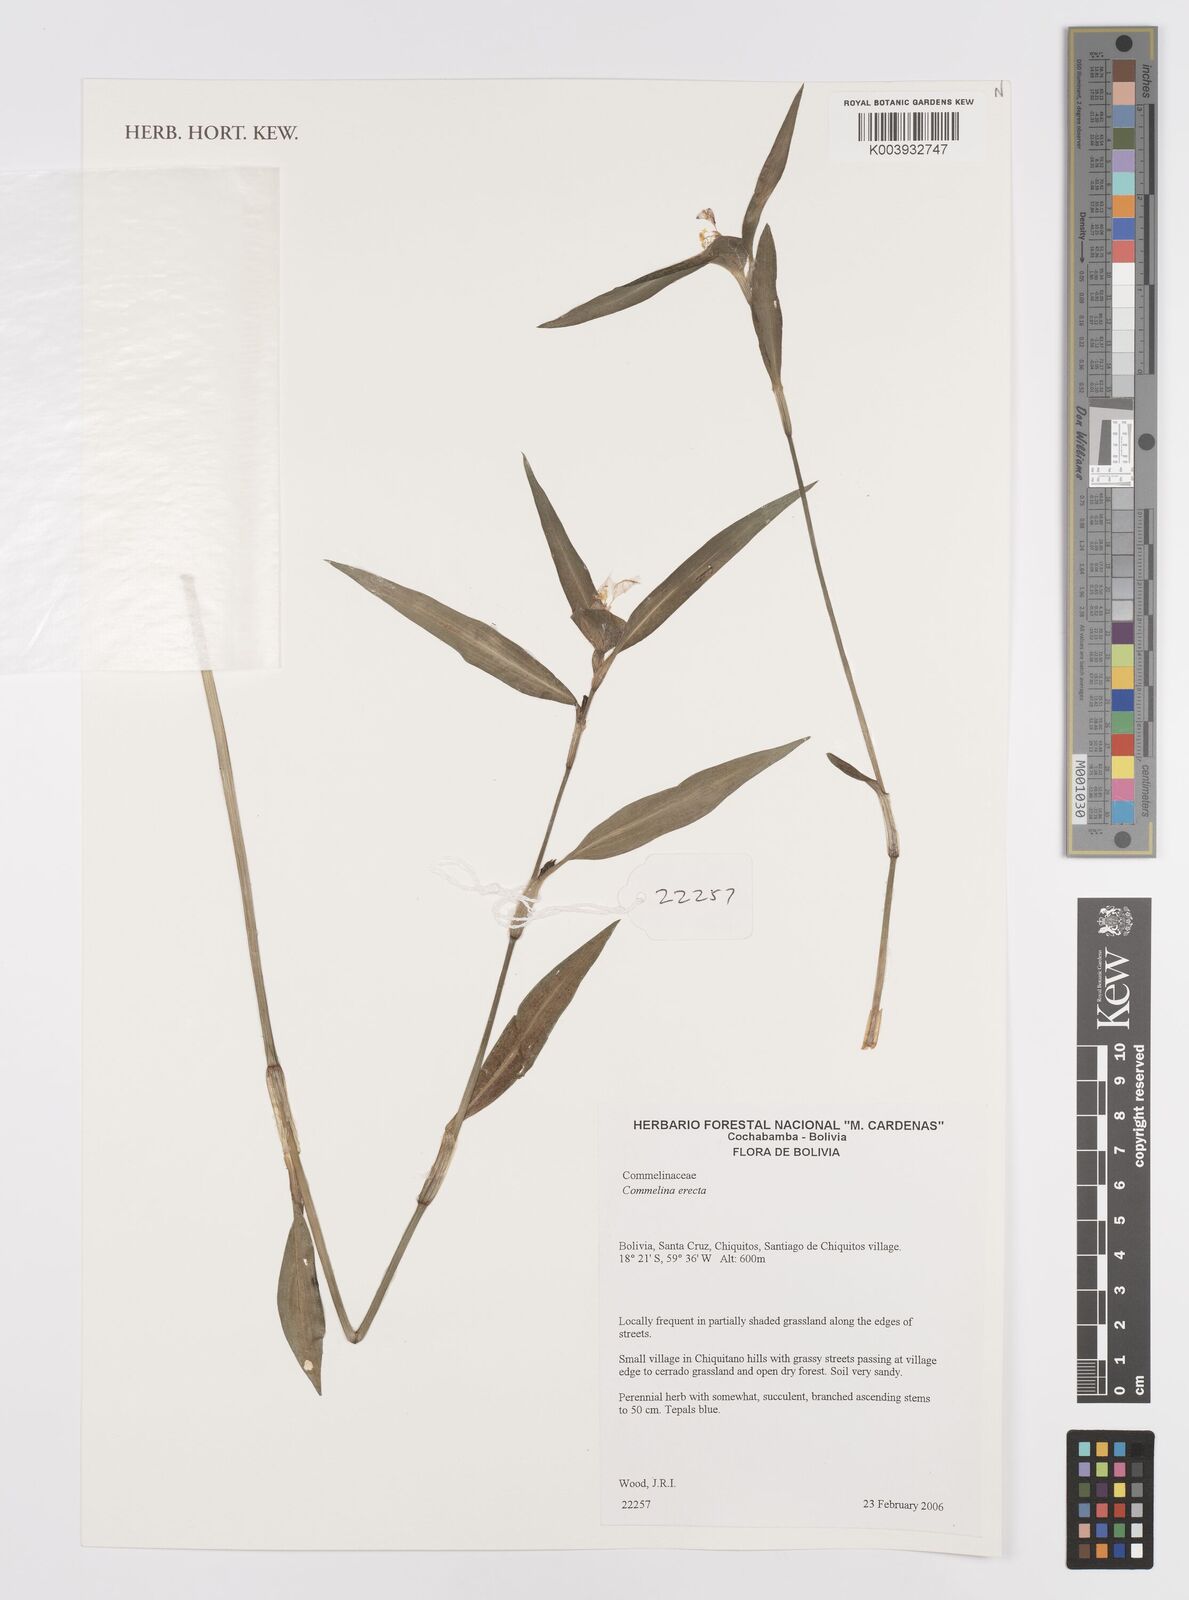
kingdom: Plantae
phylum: Tracheophyta
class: Liliopsida
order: Commelinales
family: Commelinaceae
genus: Commelina
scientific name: Commelina erecta
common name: Blousel blommetjie
